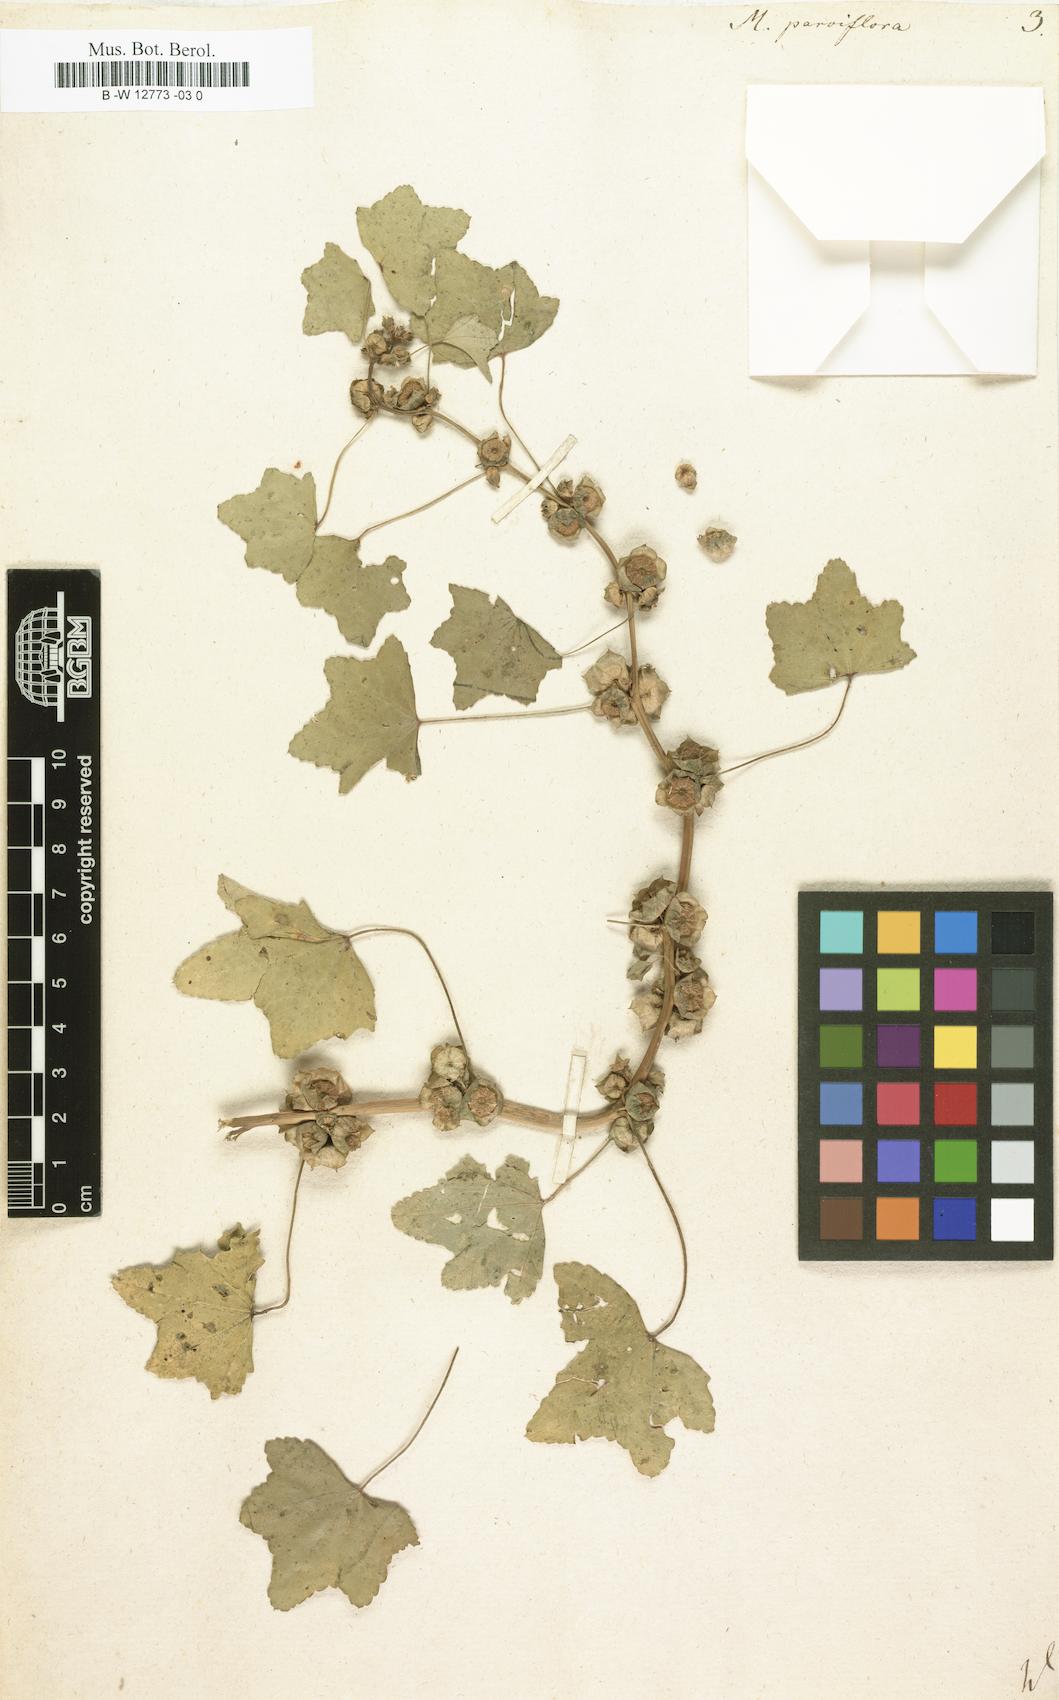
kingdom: Plantae
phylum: Tracheophyta
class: Magnoliopsida
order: Malvales
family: Malvaceae
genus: Malva
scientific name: Malva parviflora
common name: Least mallow
